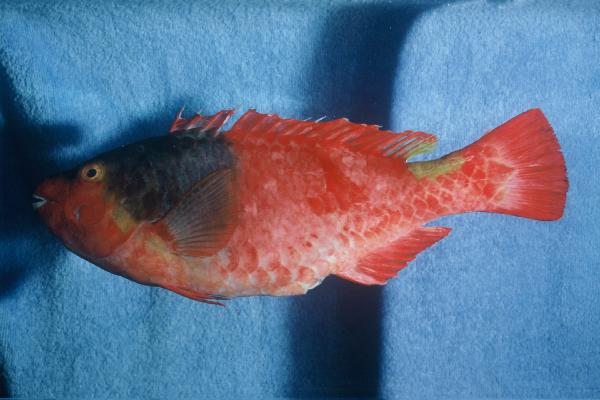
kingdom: Animalia
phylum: Chordata
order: Perciformes
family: Scaridae
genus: Sparisoma
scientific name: Sparisoma cretense
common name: Parrotfish
